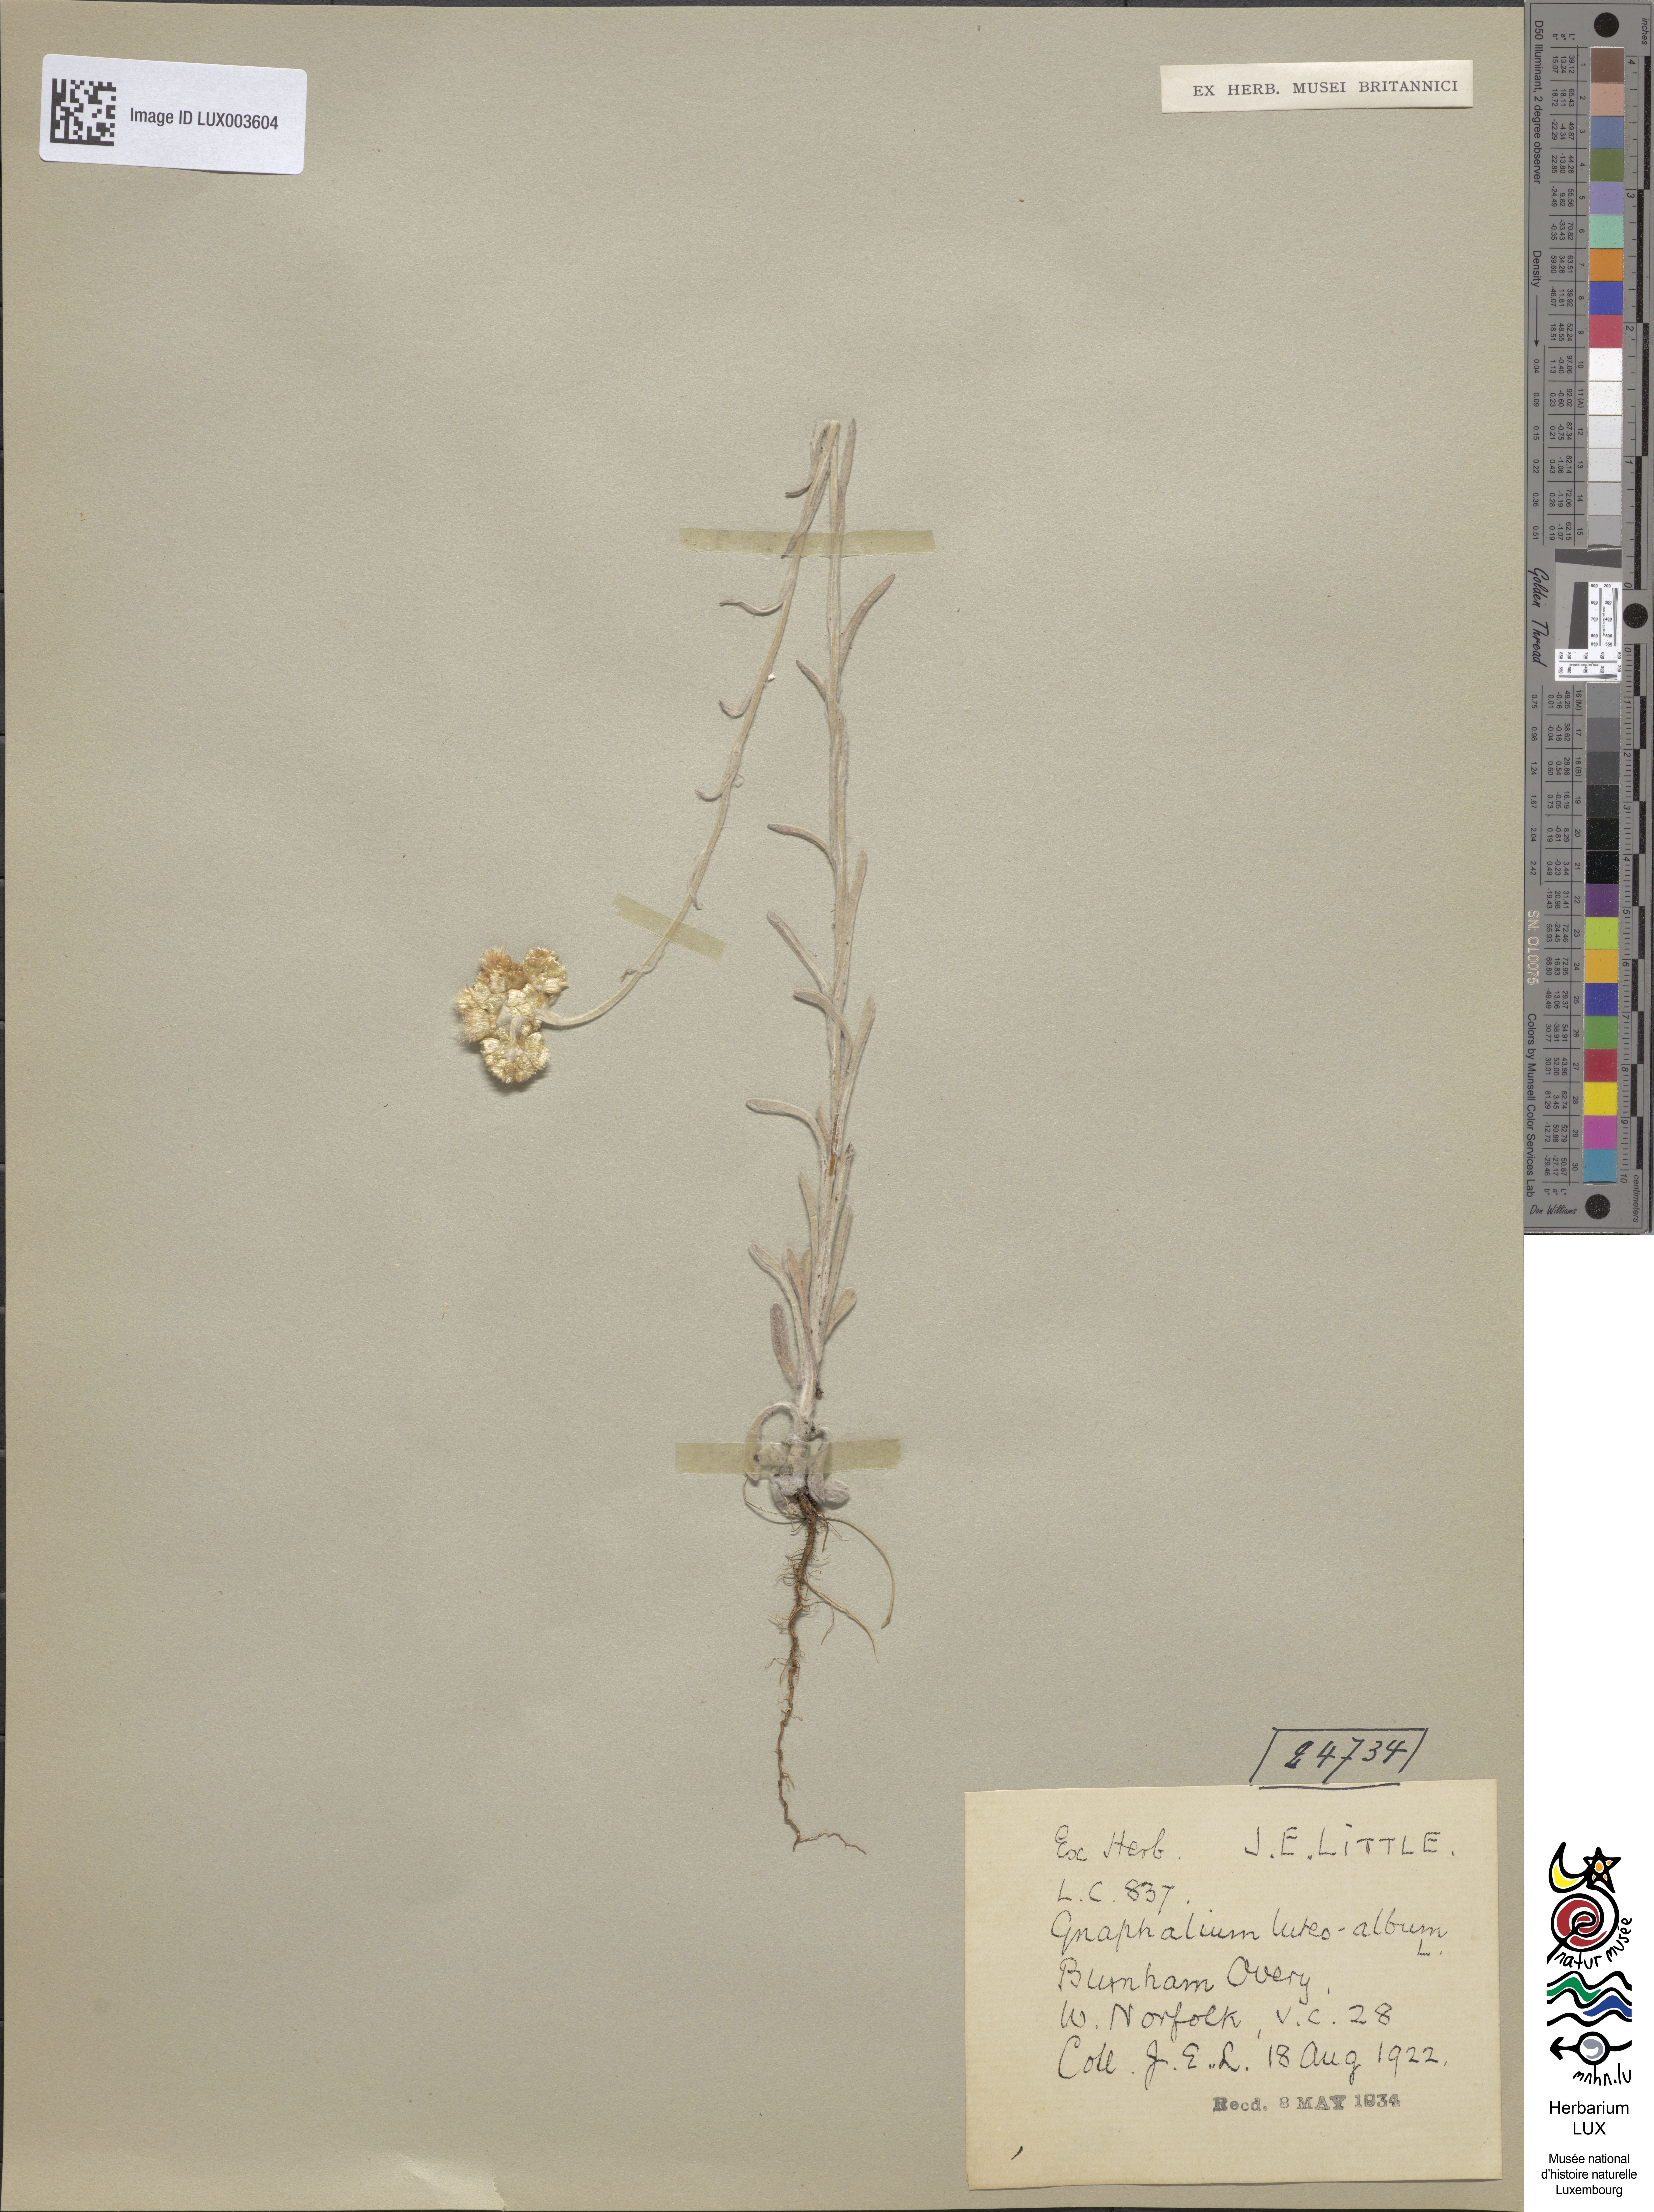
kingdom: Plantae
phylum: Tracheophyta
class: Magnoliopsida
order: Asterales
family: Asteraceae
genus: Helichrysum
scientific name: Helichrysum luteoalbum
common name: Daisy
